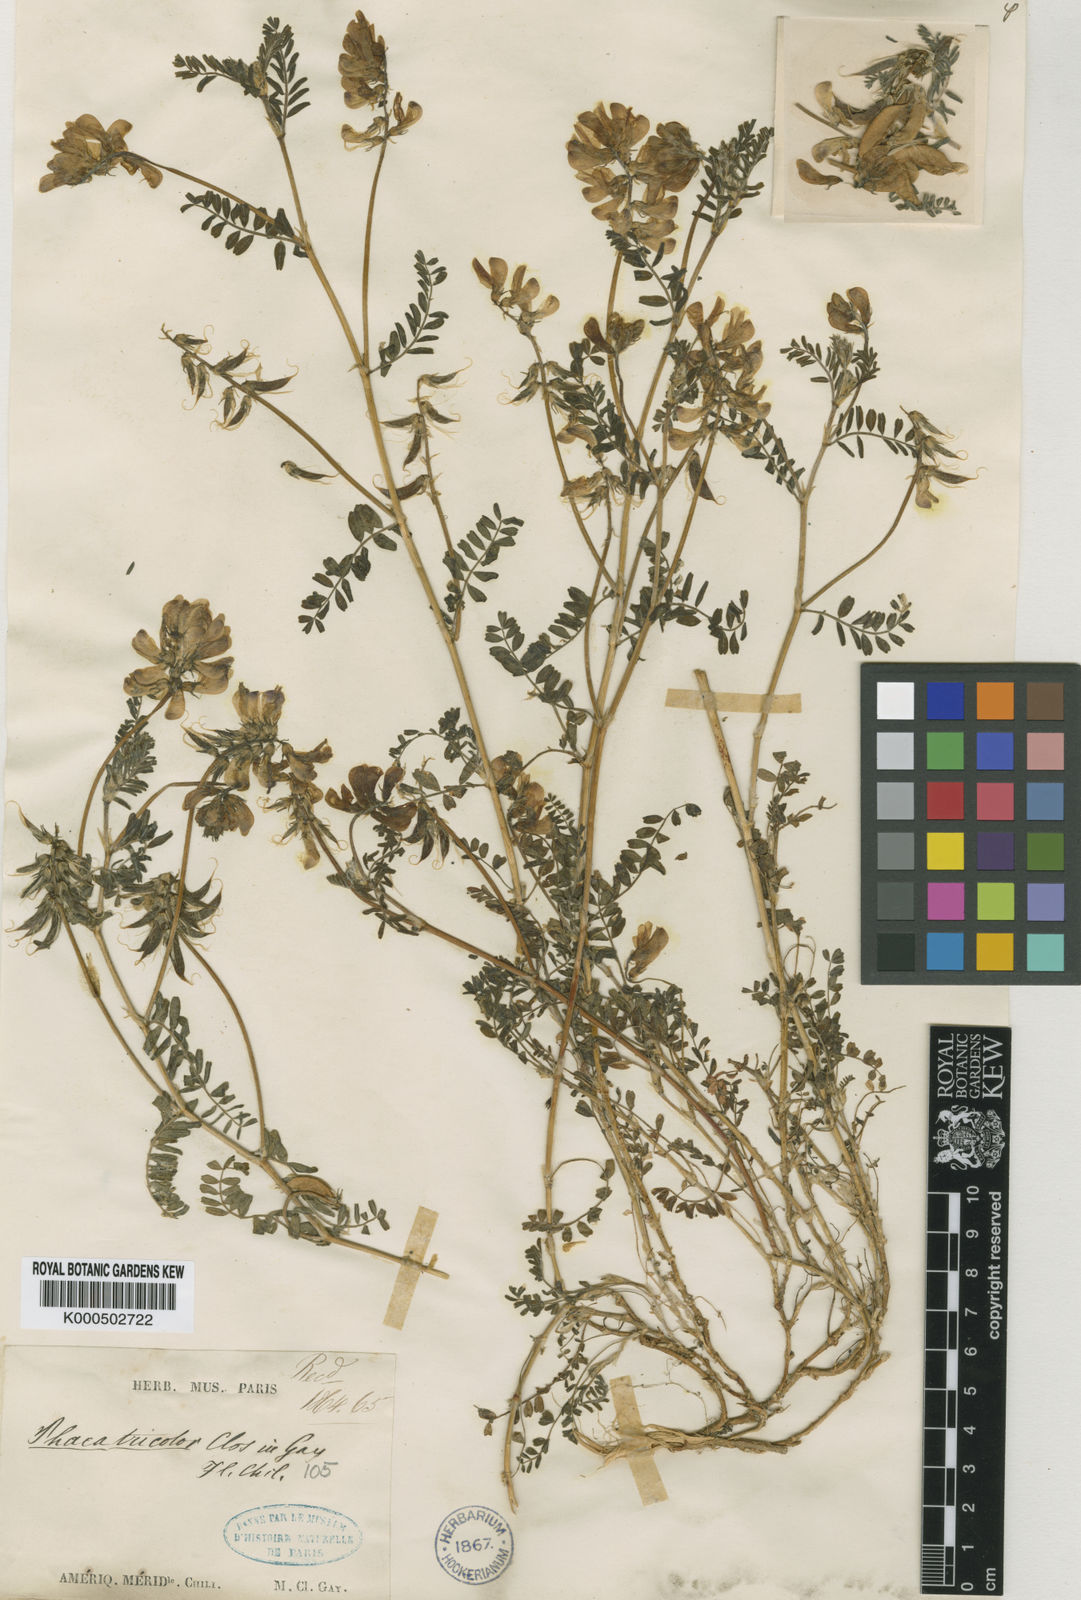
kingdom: Plantae
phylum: Tracheophyta
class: Magnoliopsida
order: Fabales
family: Fabaceae
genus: Astragalus
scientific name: Astragalus arkalycensis
